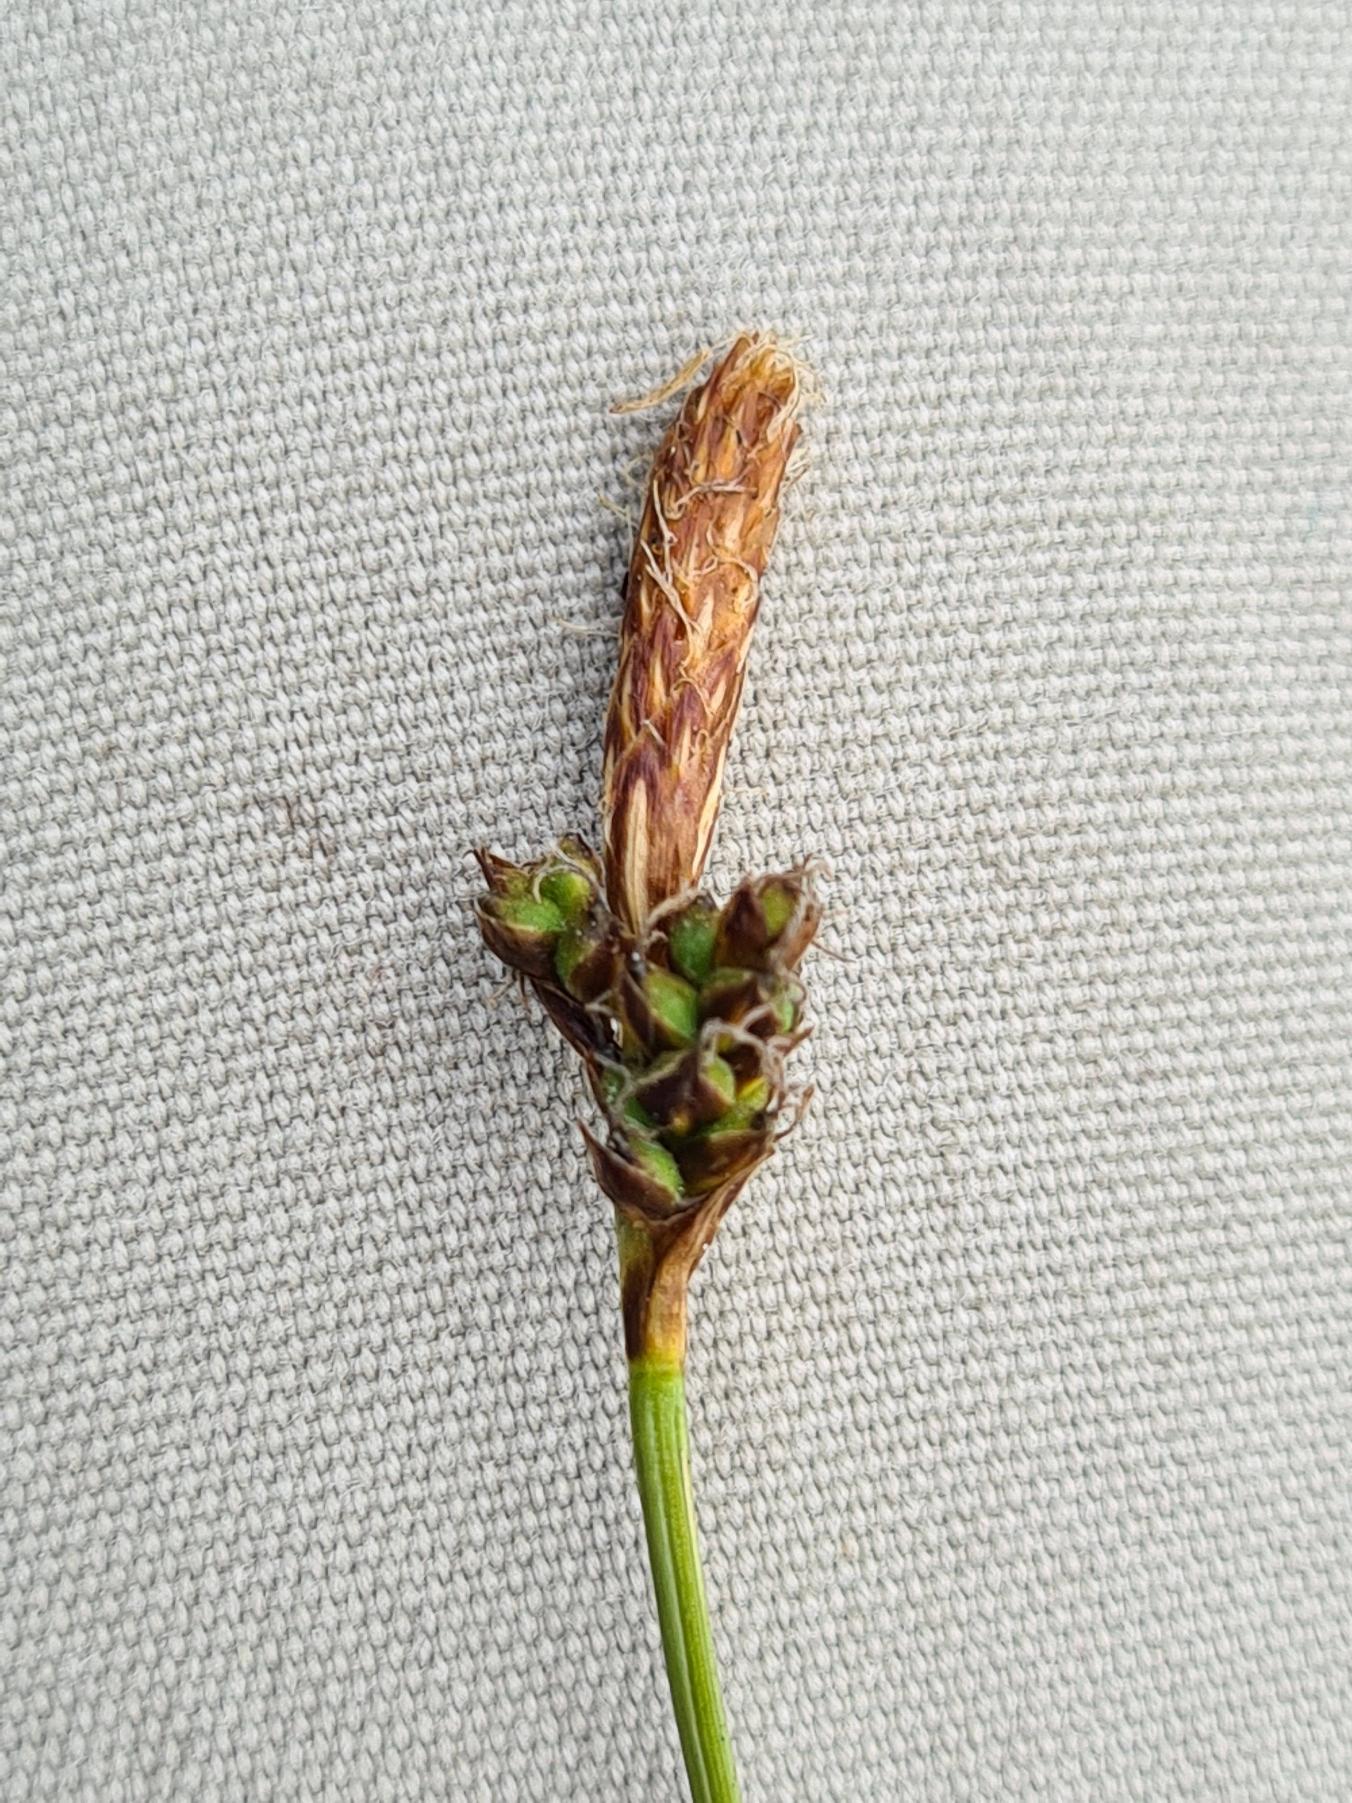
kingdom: Plantae
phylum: Tracheophyta
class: Liliopsida
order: Poales
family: Cyperaceae
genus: Carex
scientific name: Carex caryophyllea
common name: Vår-star
